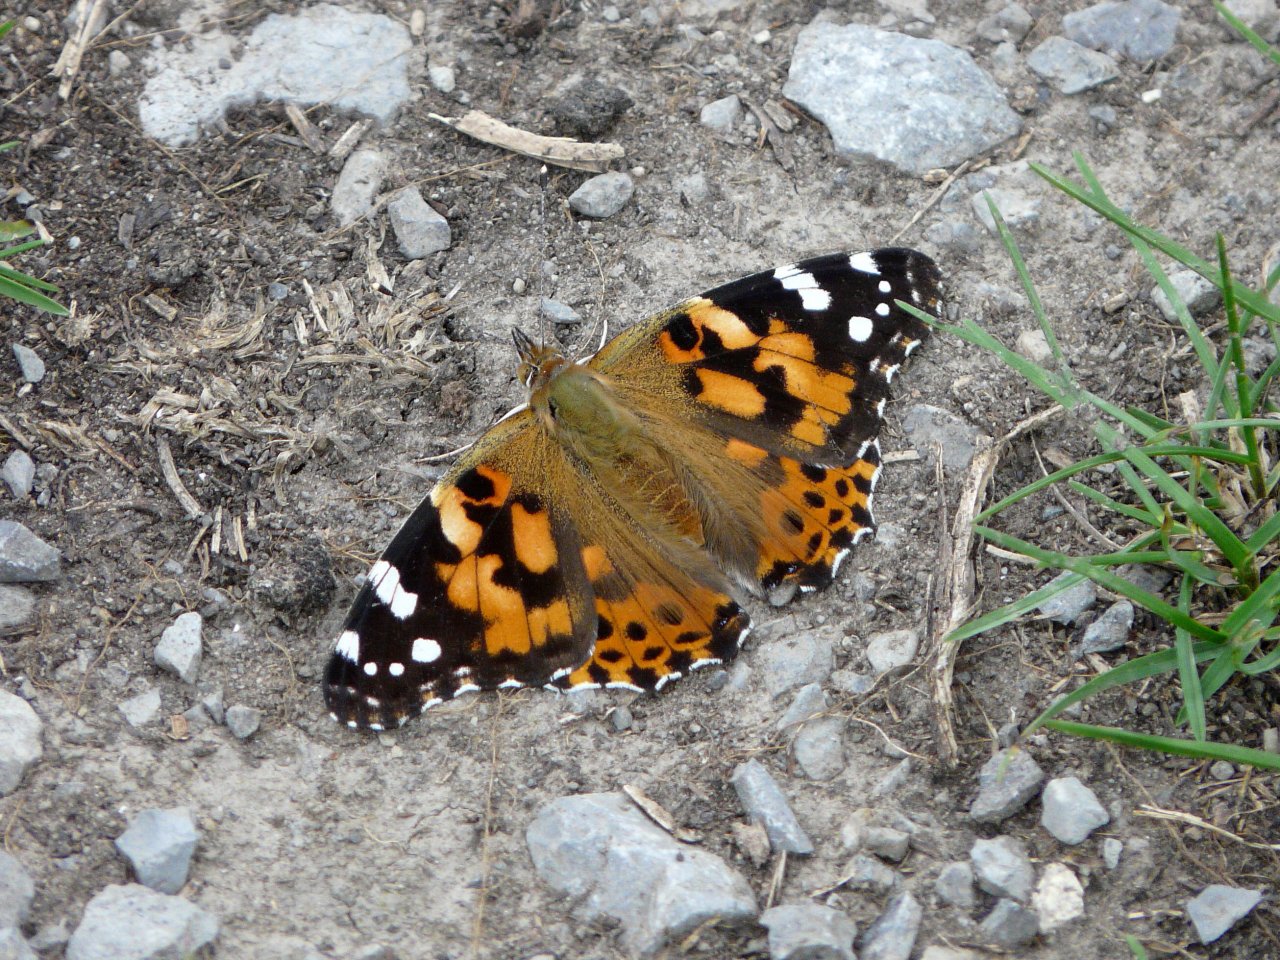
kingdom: Animalia
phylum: Arthropoda
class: Insecta
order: Lepidoptera
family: Nymphalidae
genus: Vanessa
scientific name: Vanessa cardui
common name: Painted Lady
